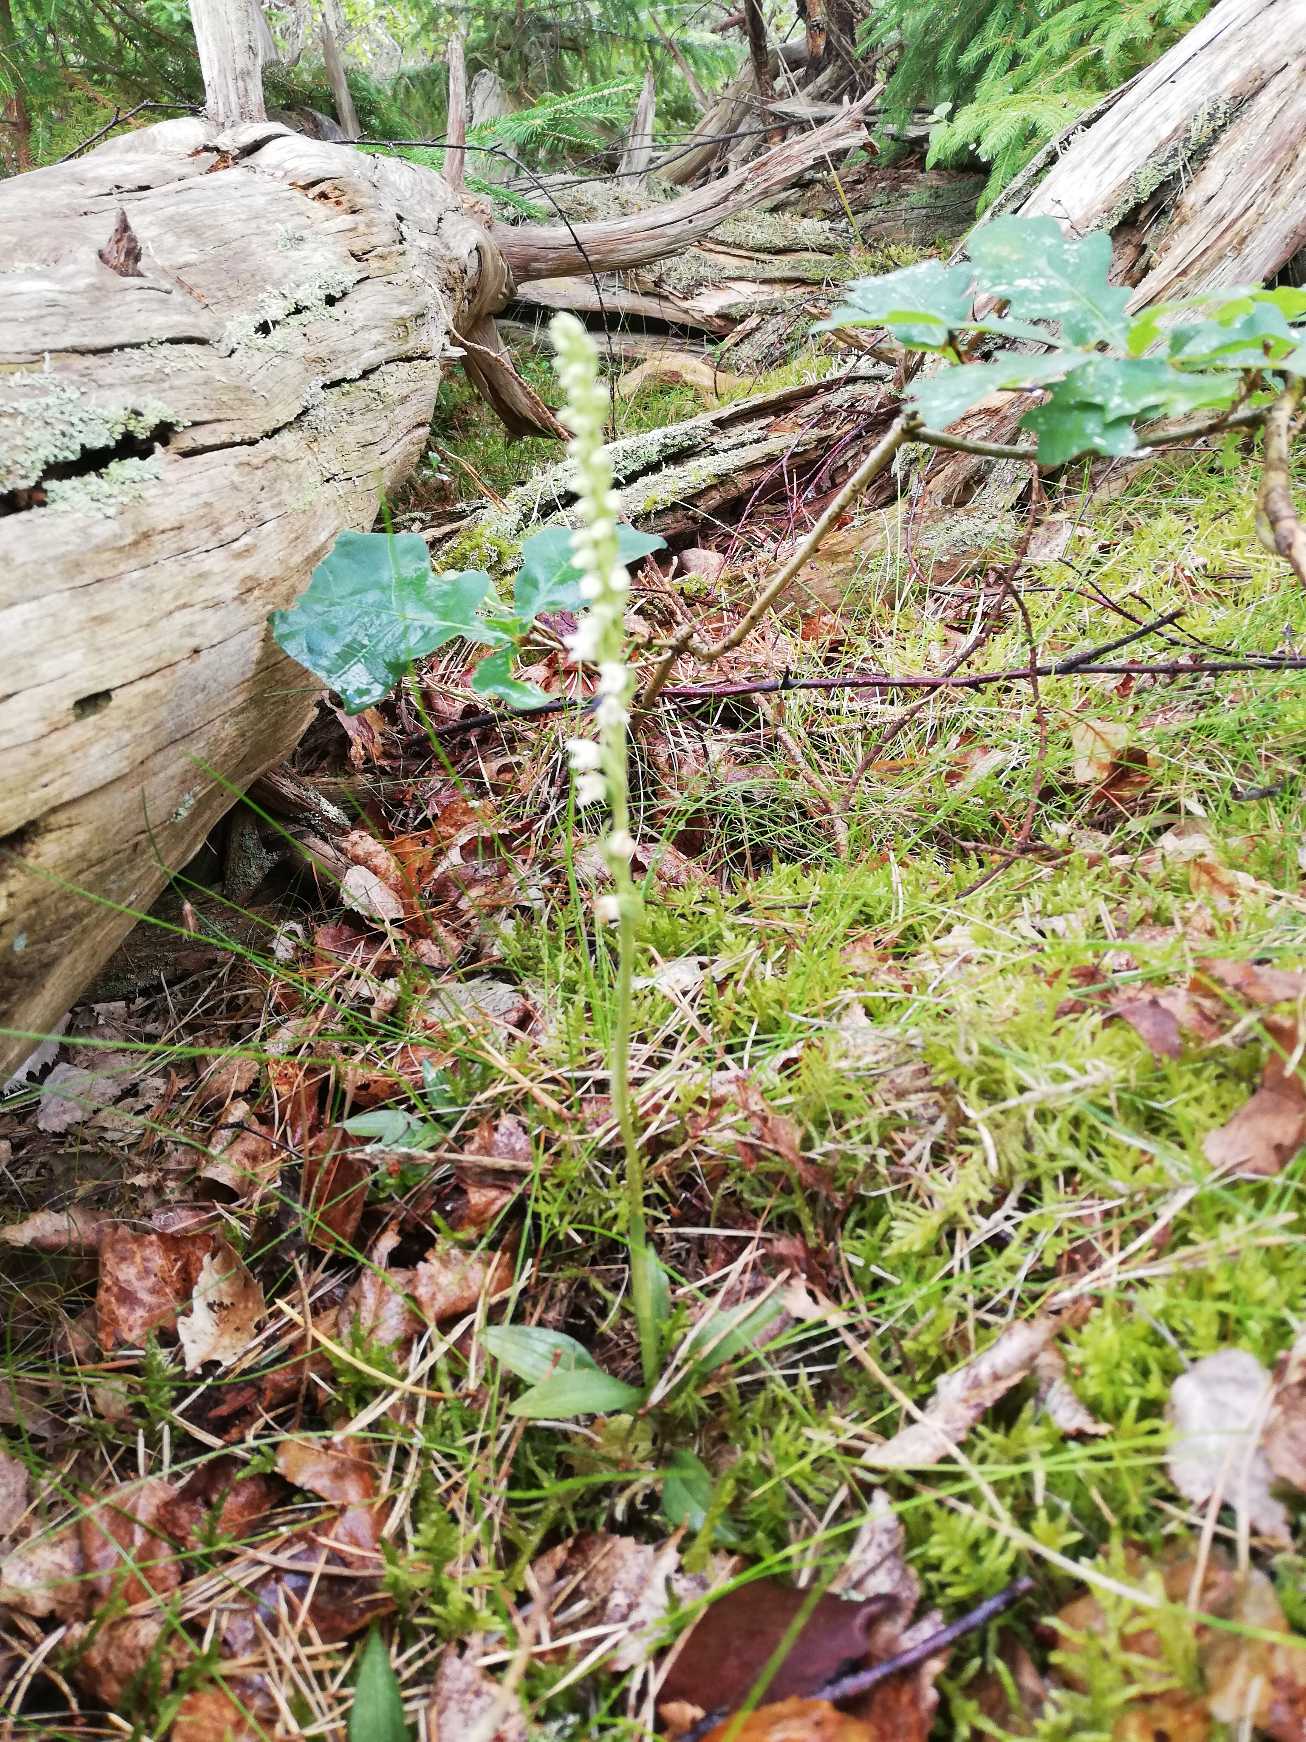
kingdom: Plantae
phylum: Tracheophyta
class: Liliopsida
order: Asparagales
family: Orchidaceae
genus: Goodyera
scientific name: Goodyera repens
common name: Knærod
